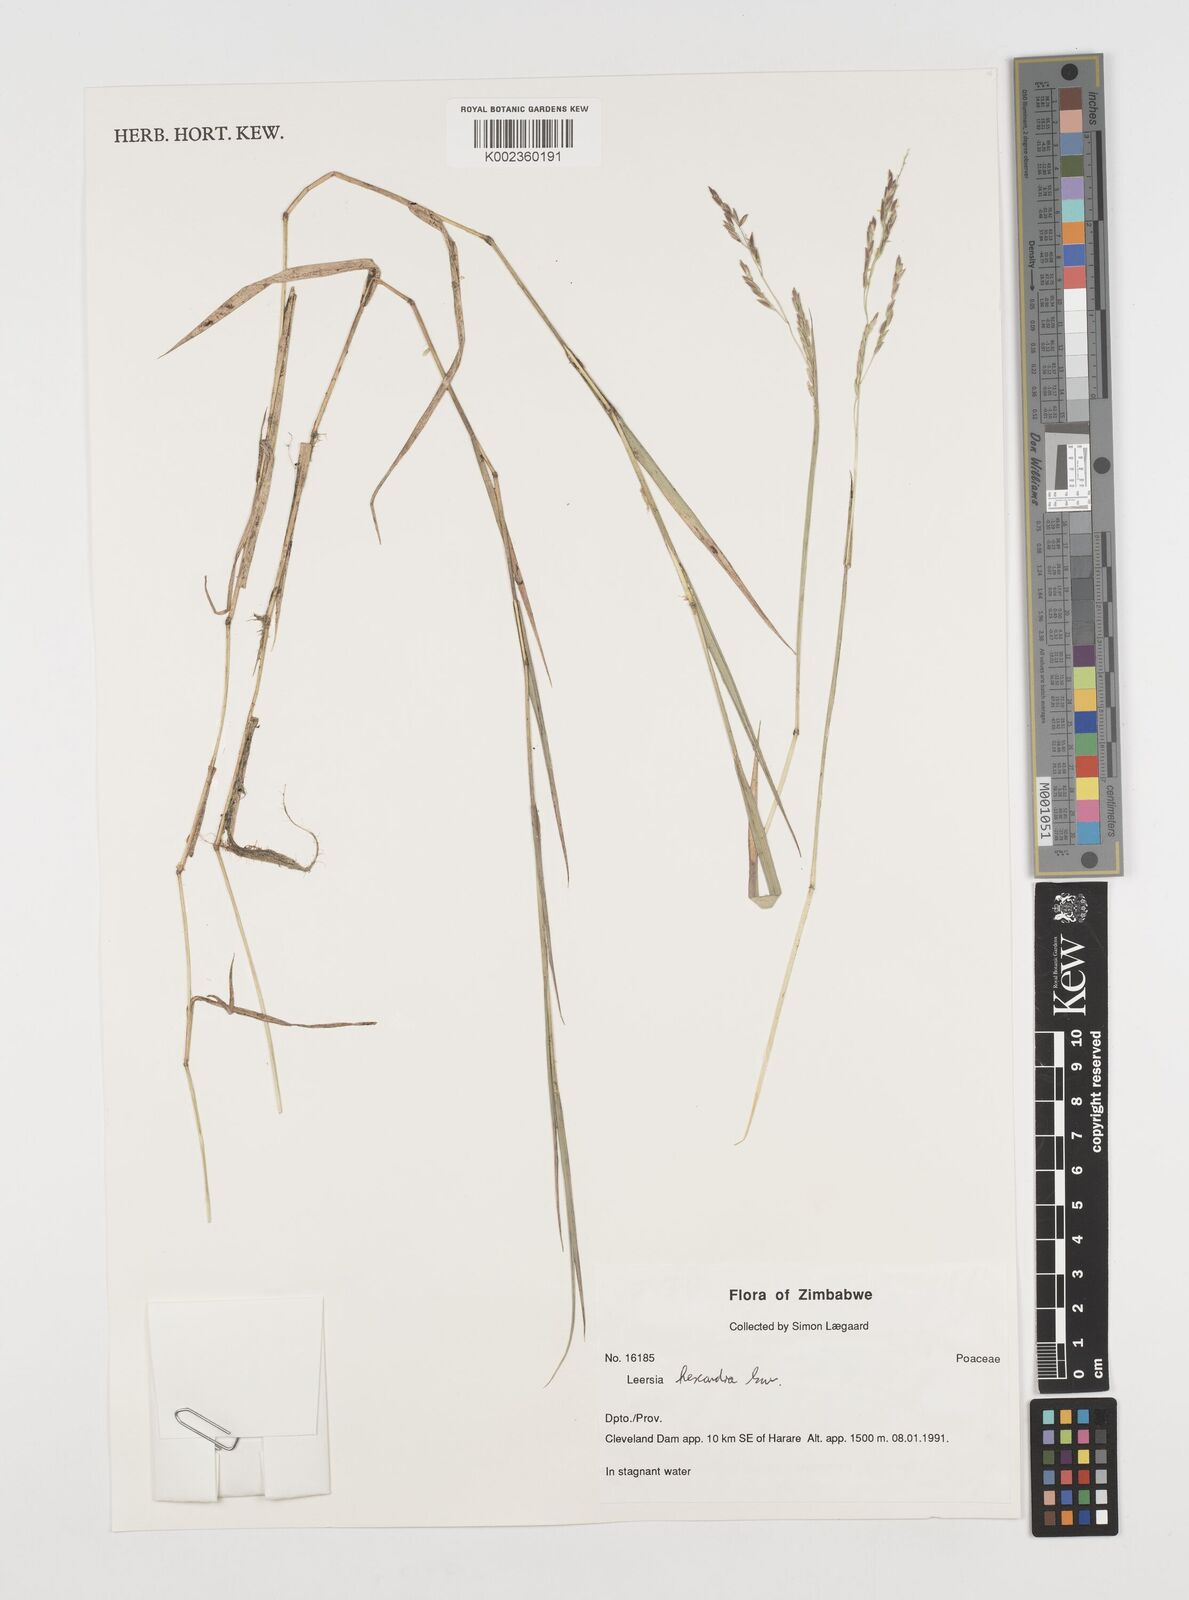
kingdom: Plantae
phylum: Tracheophyta
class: Liliopsida
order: Poales
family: Poaceae
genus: Leersia
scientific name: Leersia hexandra
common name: Southern cut grass
